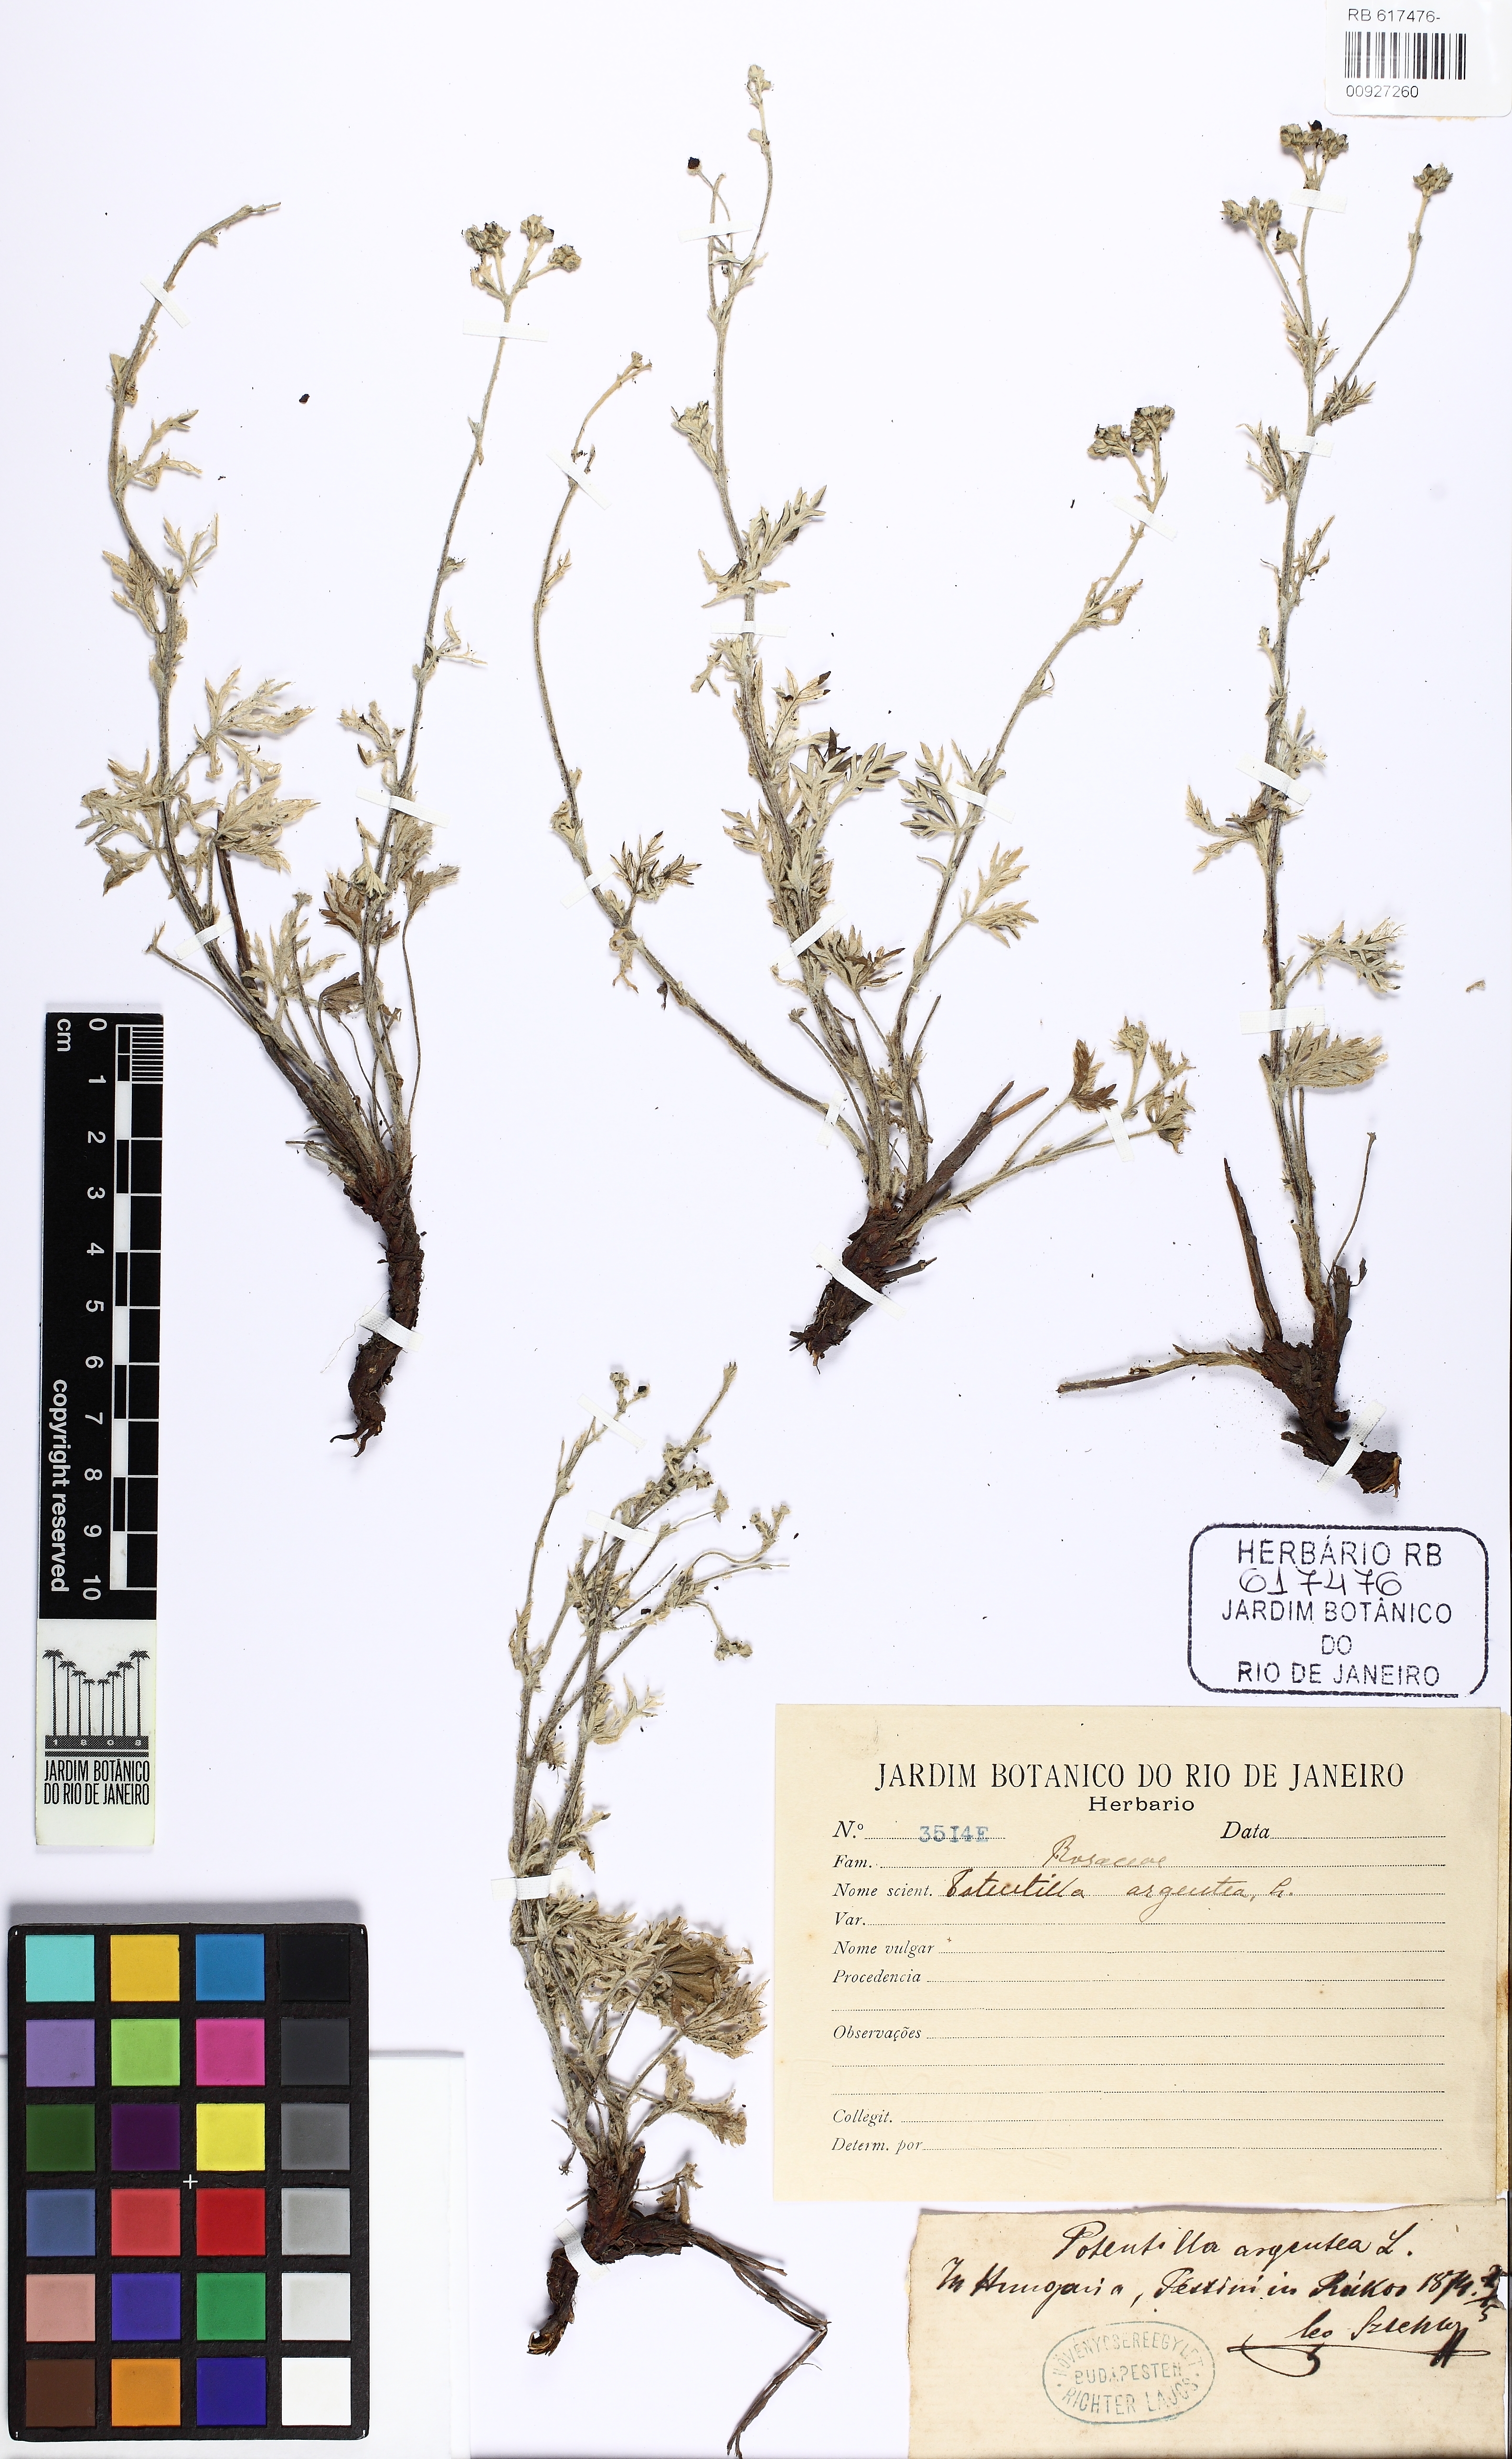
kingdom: Plantae
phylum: Tracheophyta
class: Magnoliopsida
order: Rosales
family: Rosaceae
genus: Potentilla
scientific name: Potentilla argentea
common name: Hoary cinquefoil
